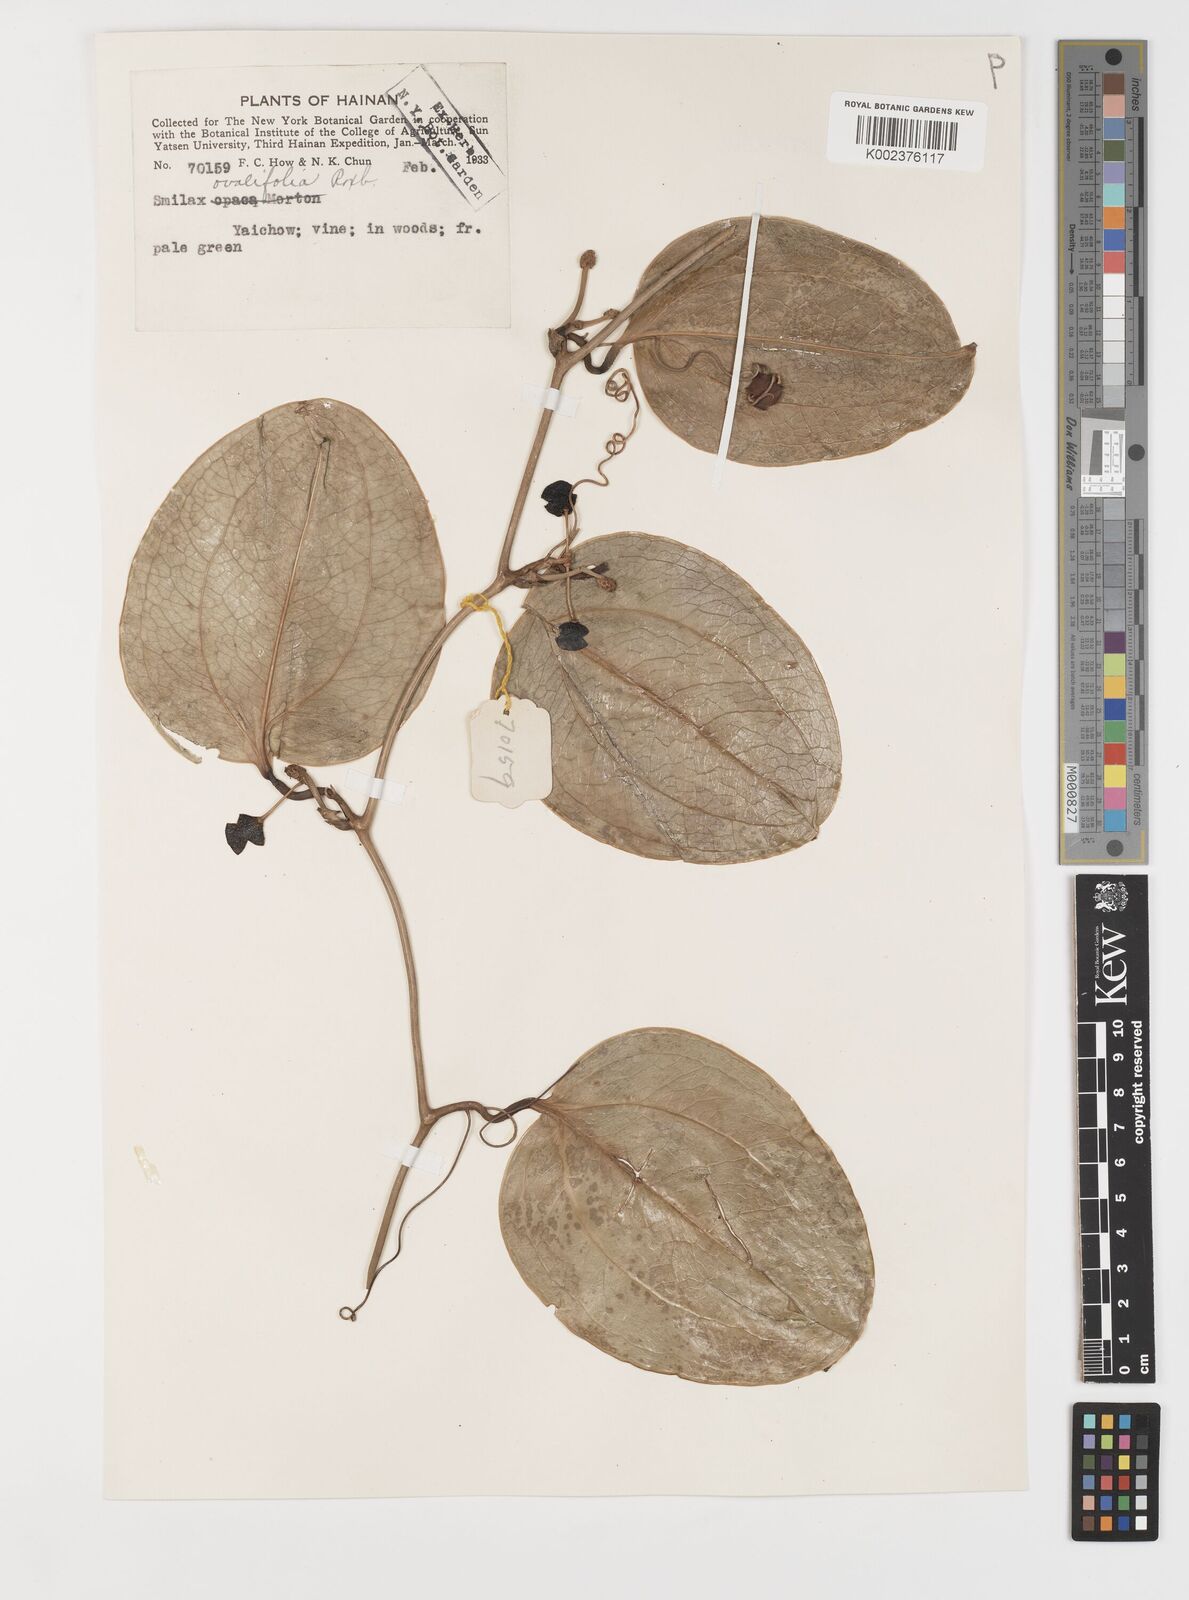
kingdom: Plantae
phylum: Tracheophyta
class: Liliopsida
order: Liliales
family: Smilacaceae
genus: Smilax
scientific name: Smilax ovalifolia
